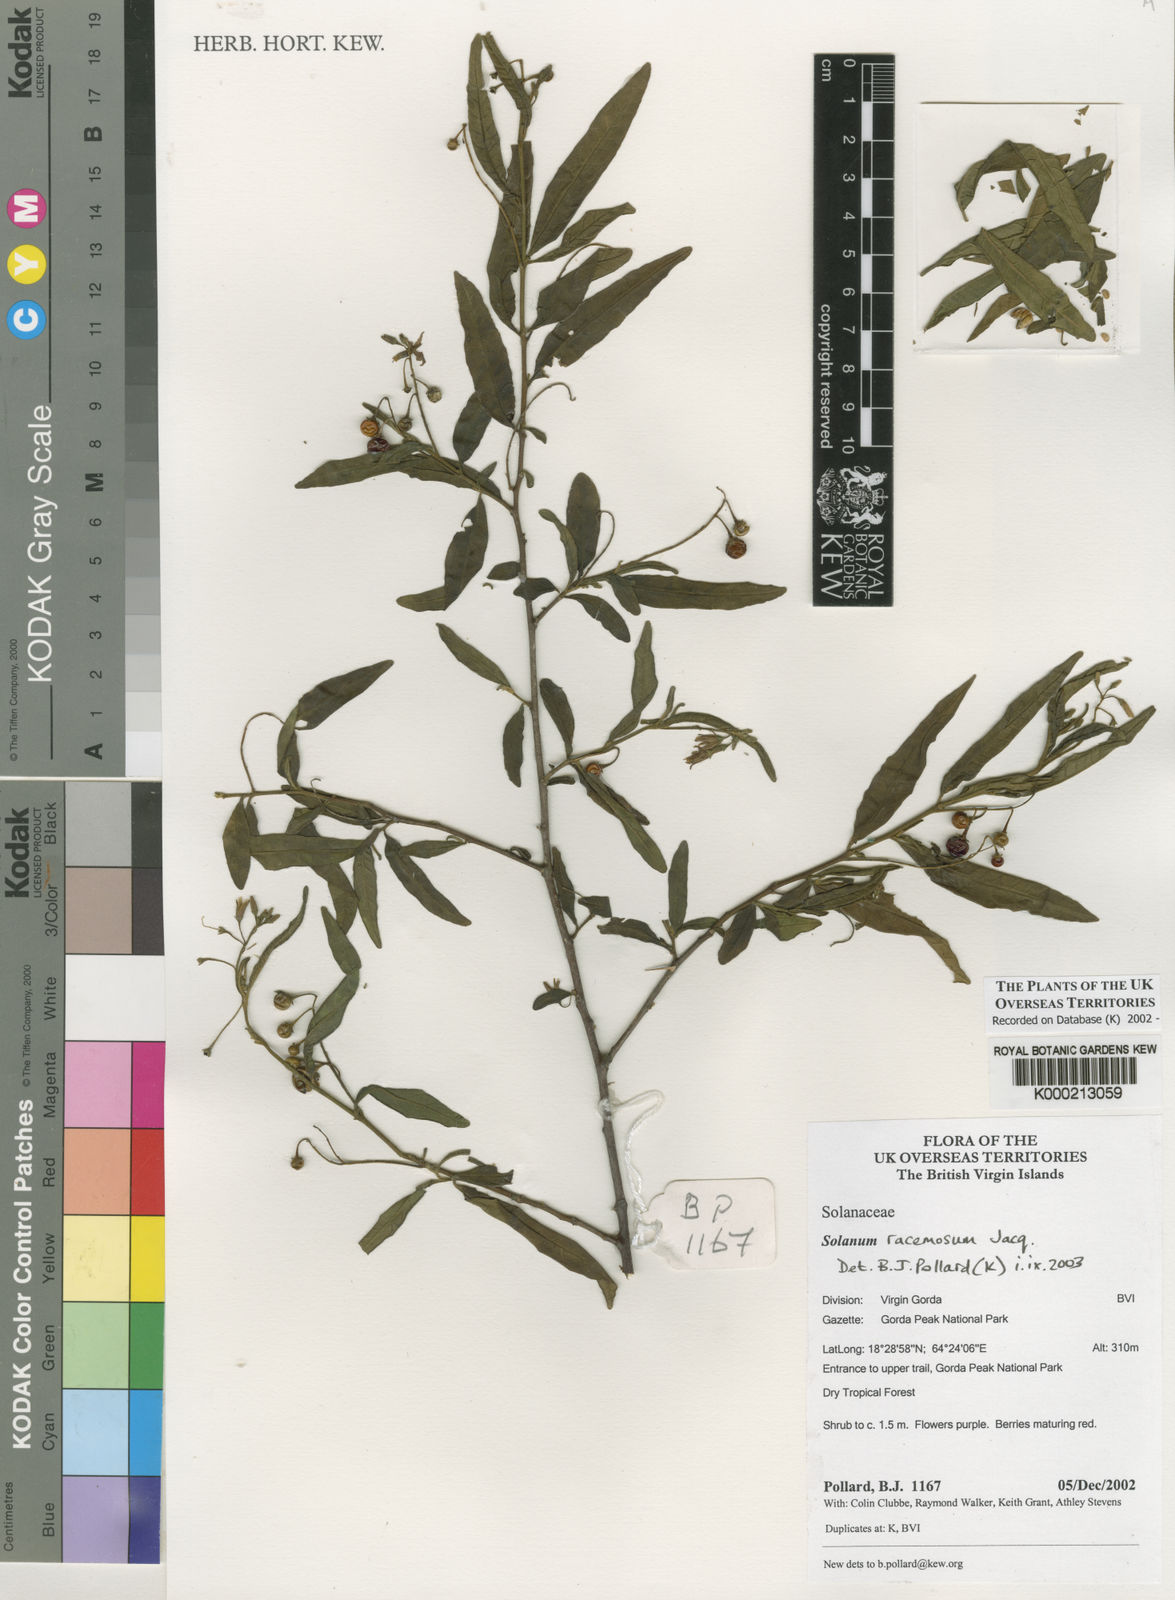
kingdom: Plantae
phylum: Tracheophyta
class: Magnoliopsida
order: Solanales
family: Solanaceae
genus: Solanum
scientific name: Solanum bahamense
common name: Canker-berry
